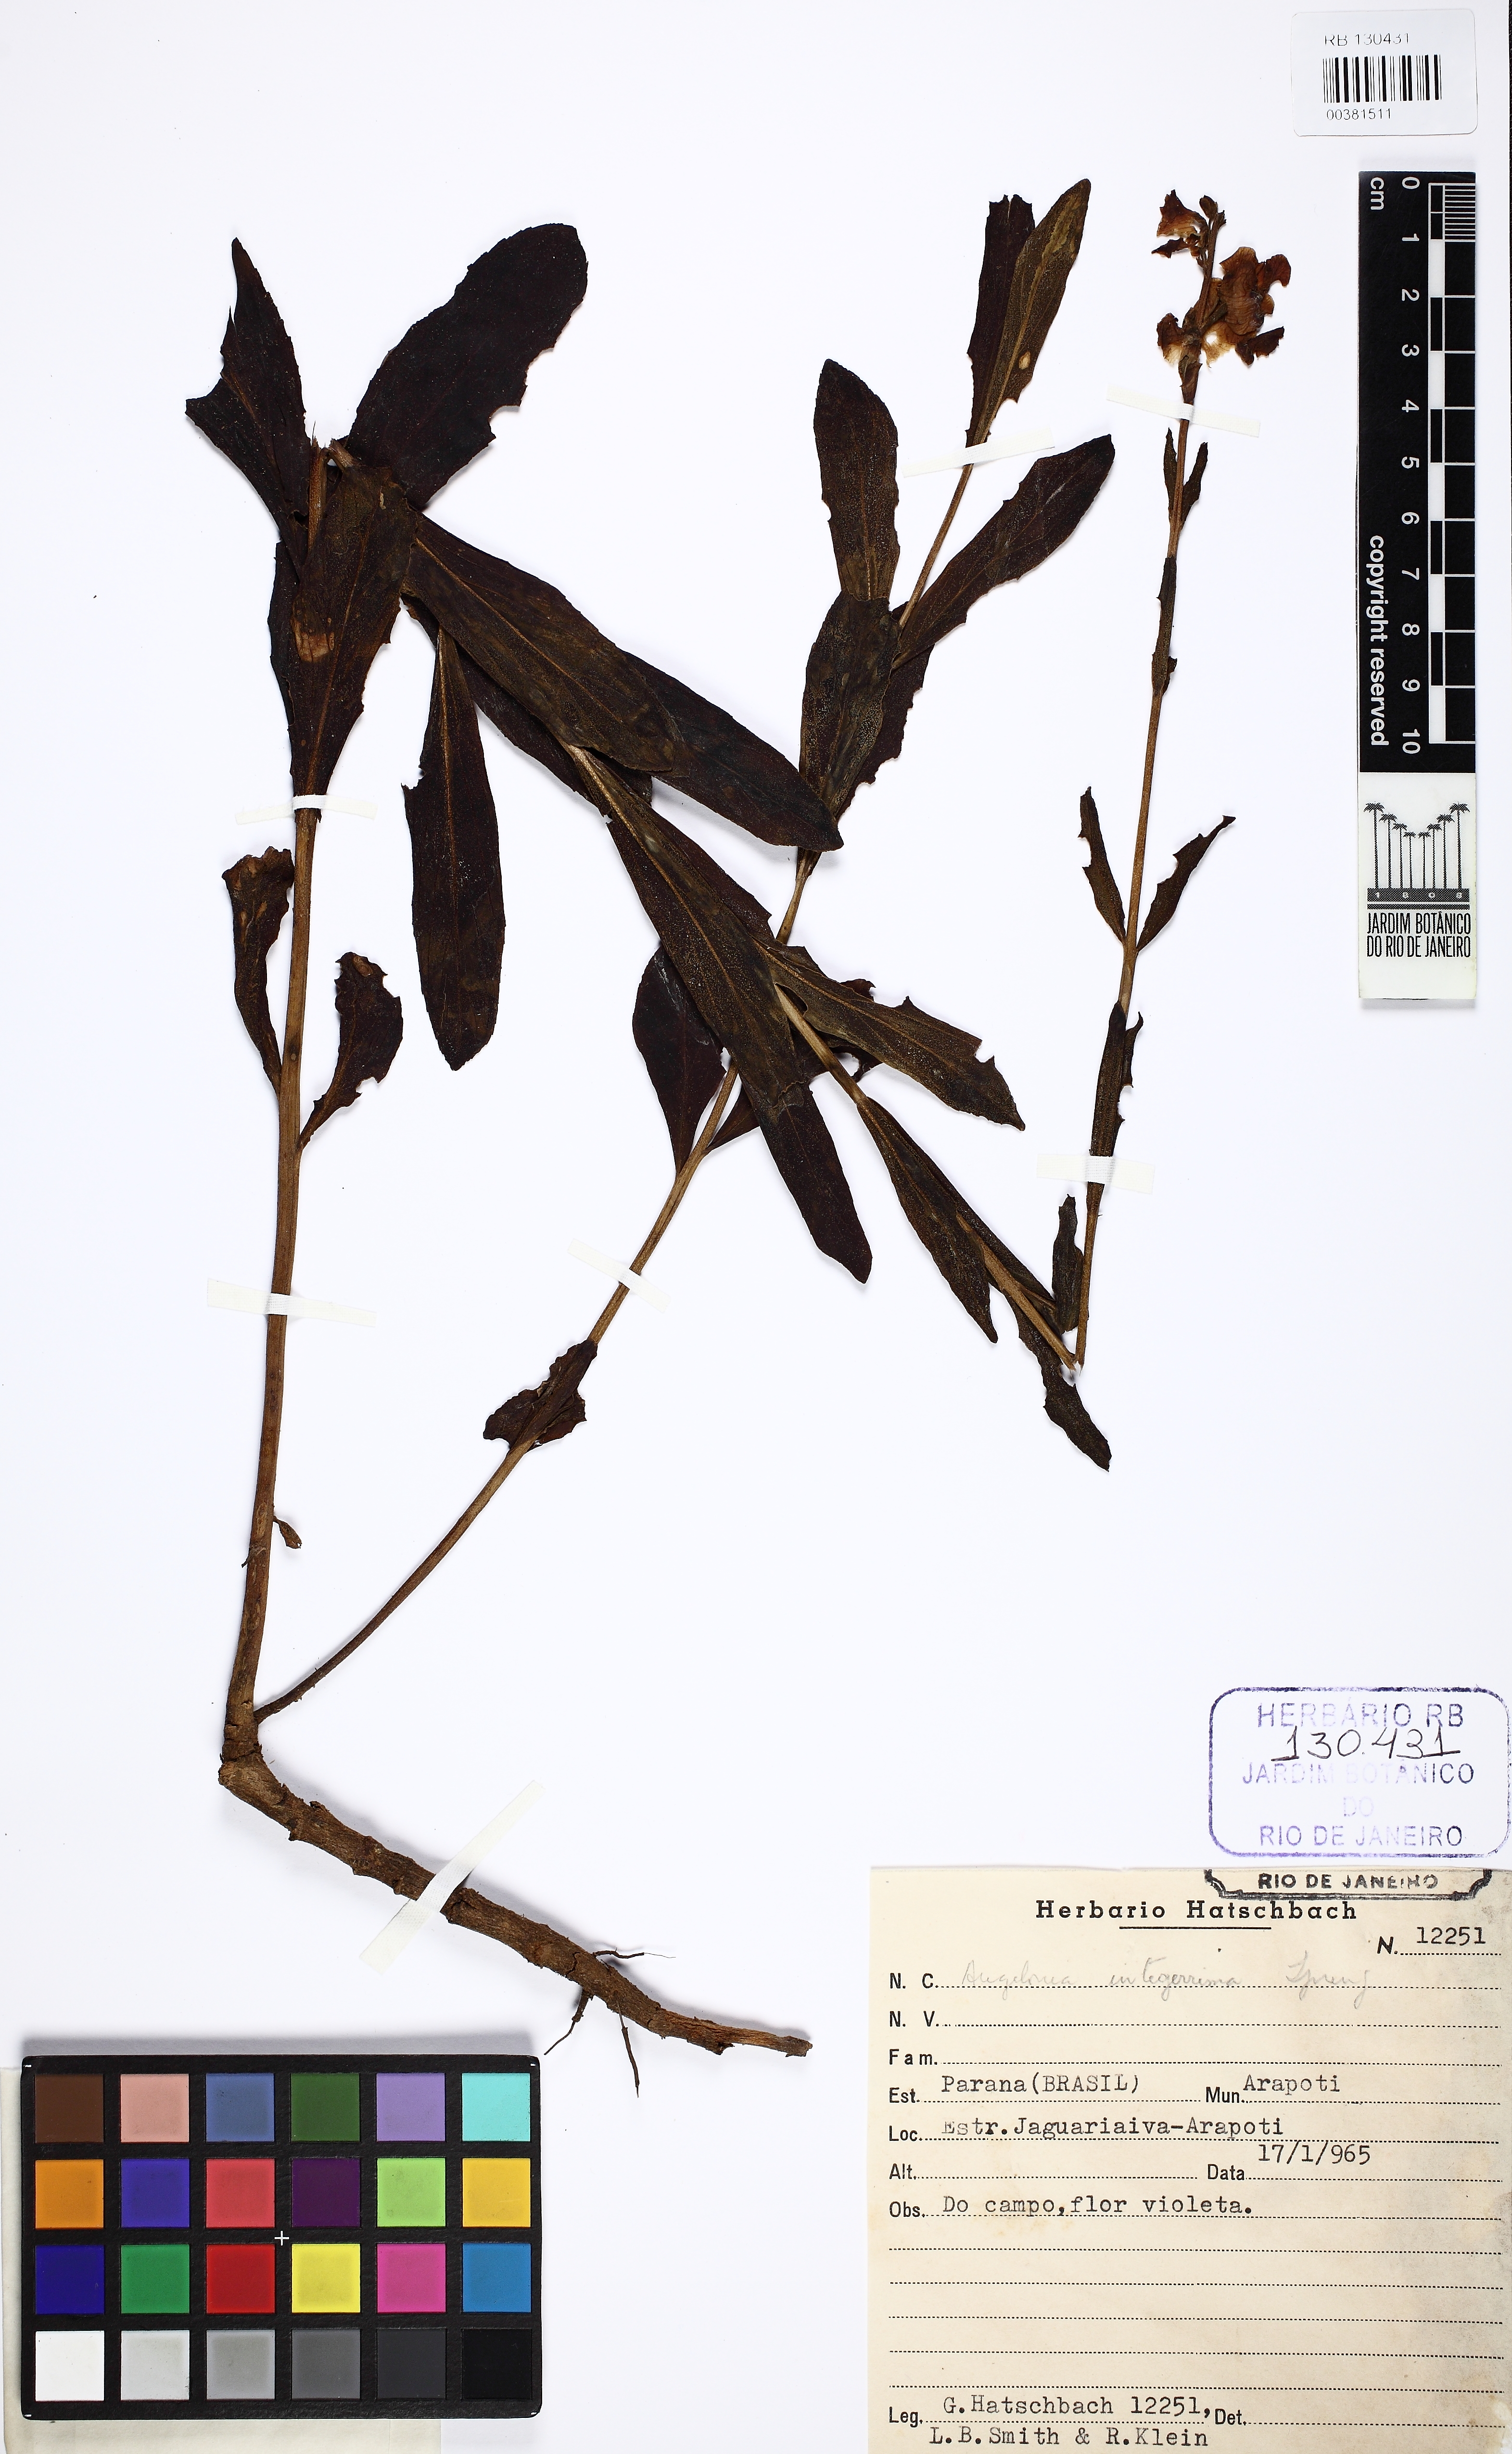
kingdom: Plantae
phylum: Tracheophyta
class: Magnoliopsida
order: Lamiales
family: Plantaginaceae
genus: Angelonia
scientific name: Angelonia integerrima
